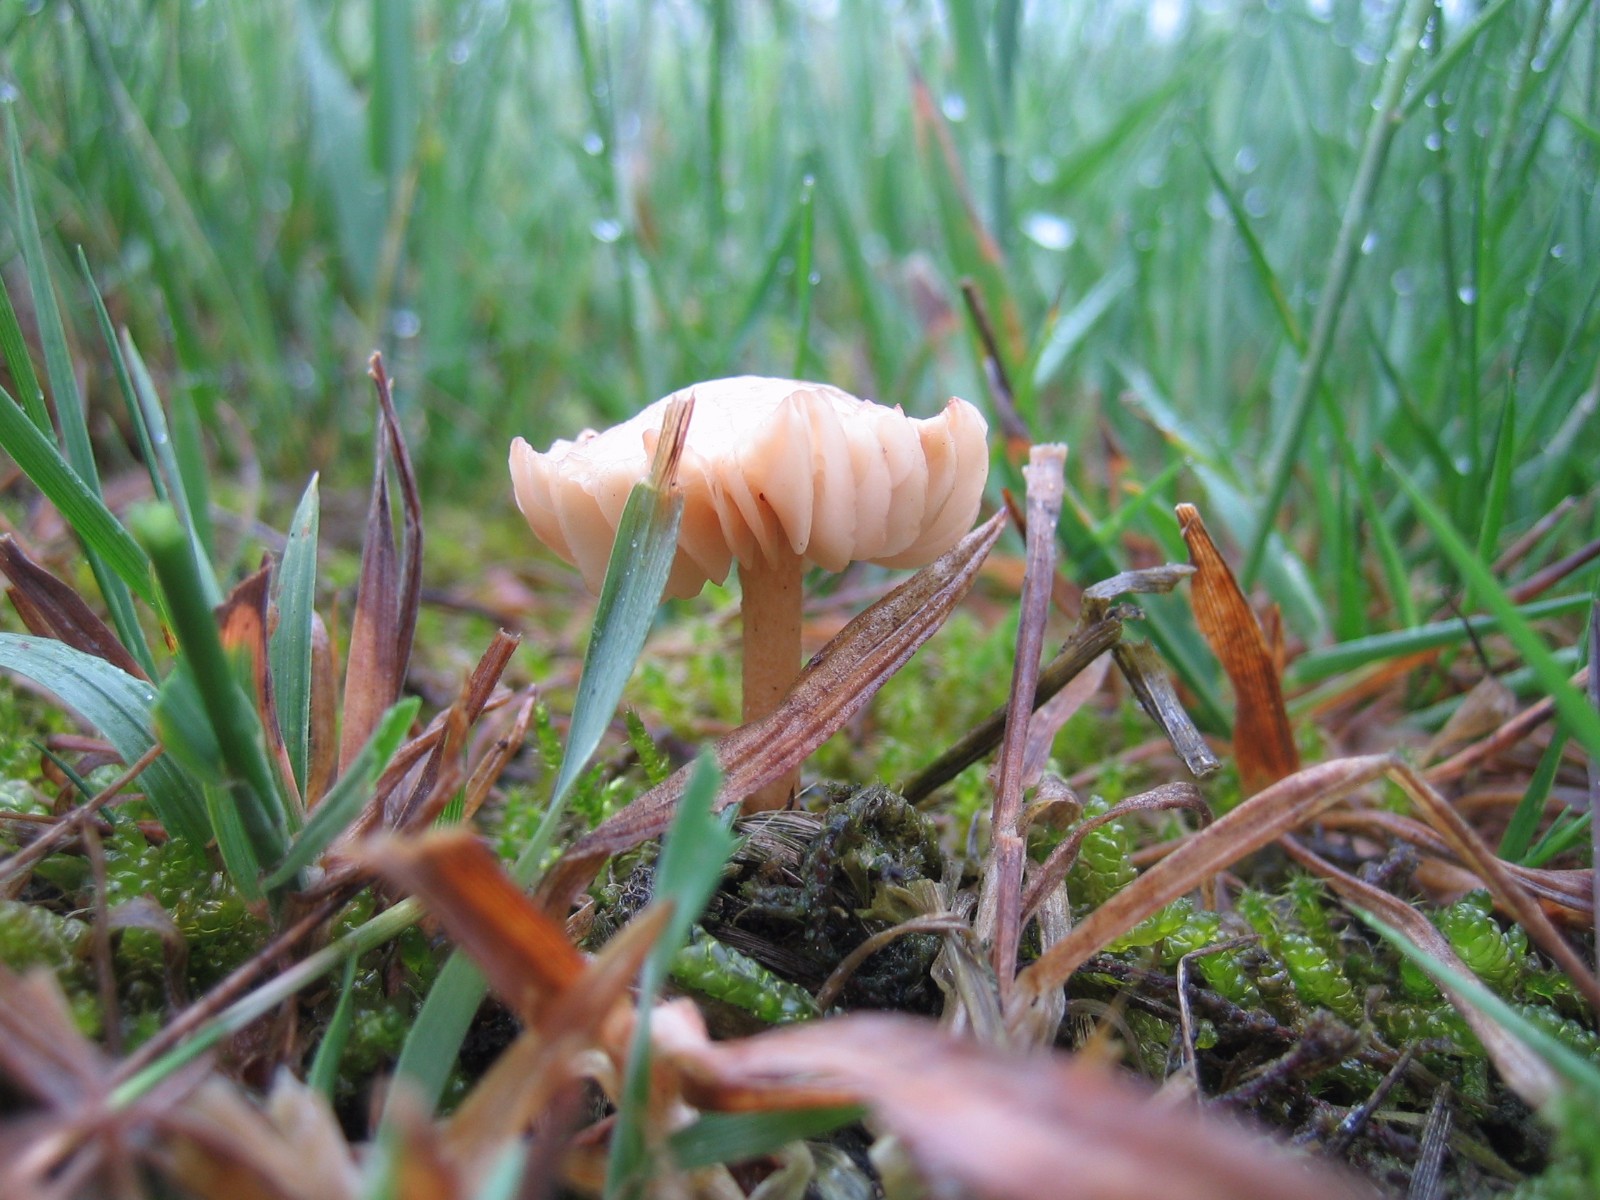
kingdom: Fungi
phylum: Basidiomycota
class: Agaricomycetes
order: Agaricales
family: Marasmiaceae
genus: Marasmius
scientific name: Marasmius oreades
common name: elledans-bruskhat
